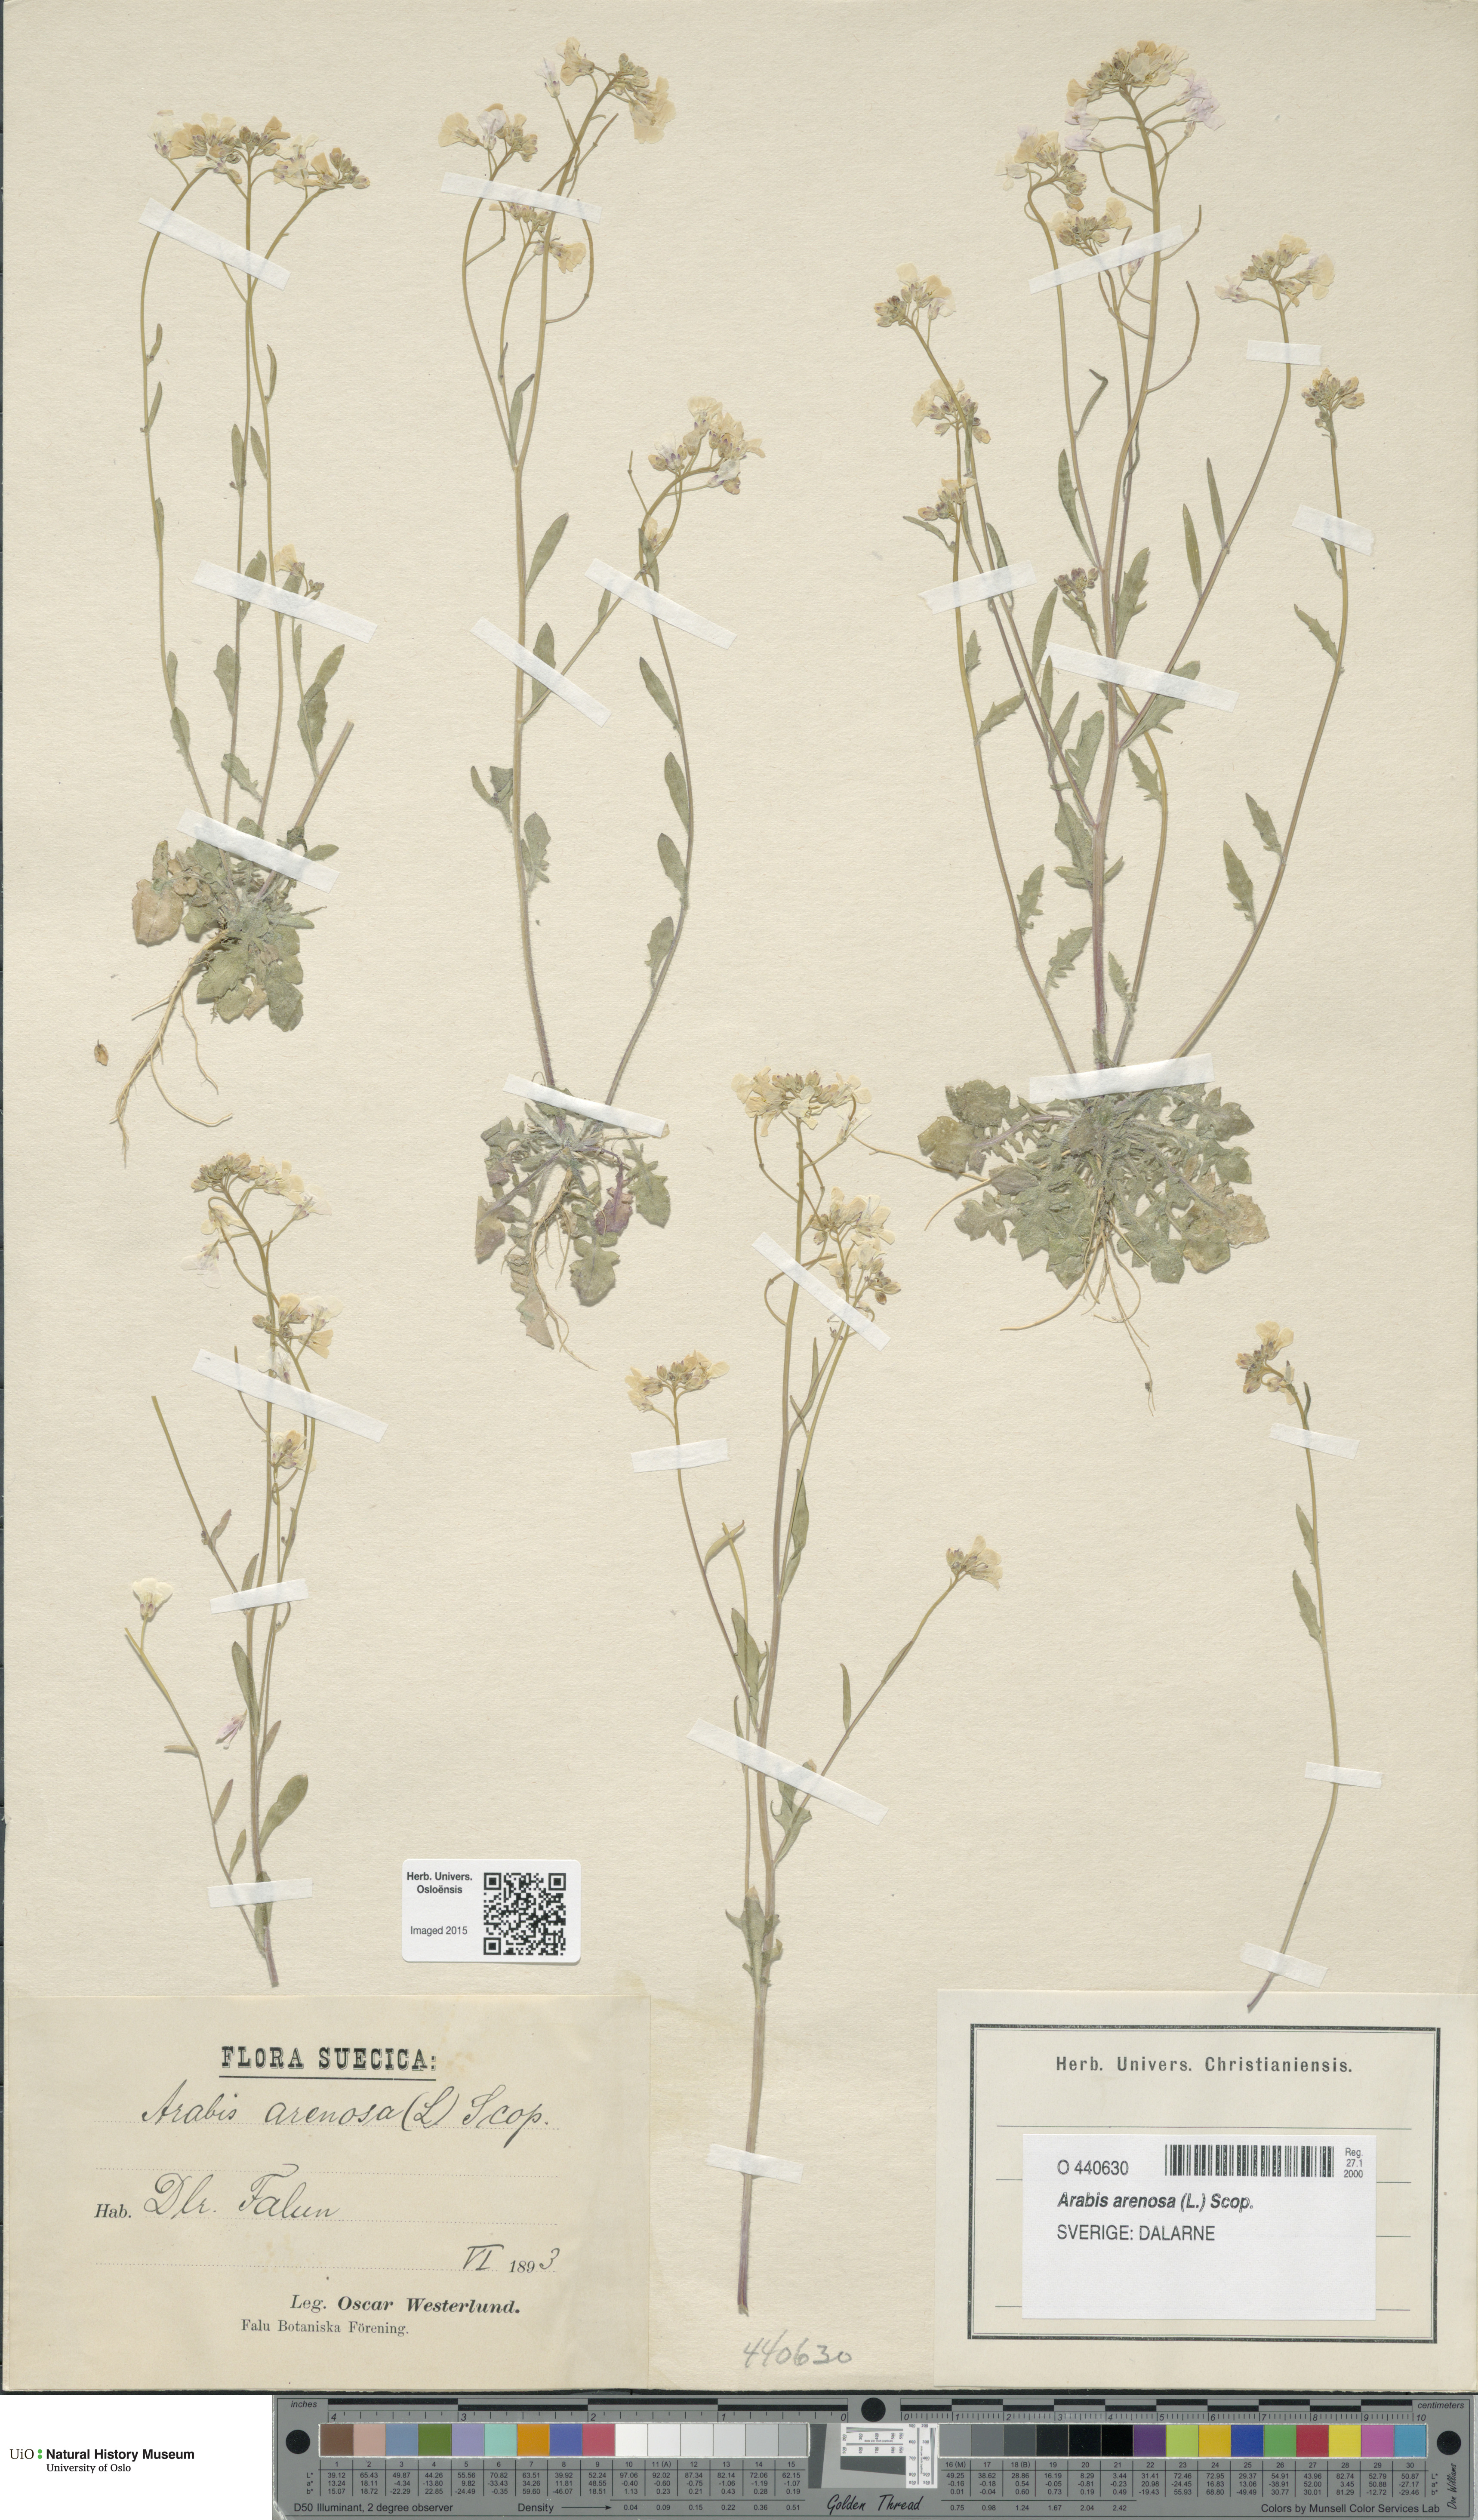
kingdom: Plantae
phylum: Tracheophyta
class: Magnoliopsida
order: Brassicales
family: Brassicaceae
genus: Arabidopsis
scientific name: Arabidopsis arenosa
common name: Sand rock-cress
